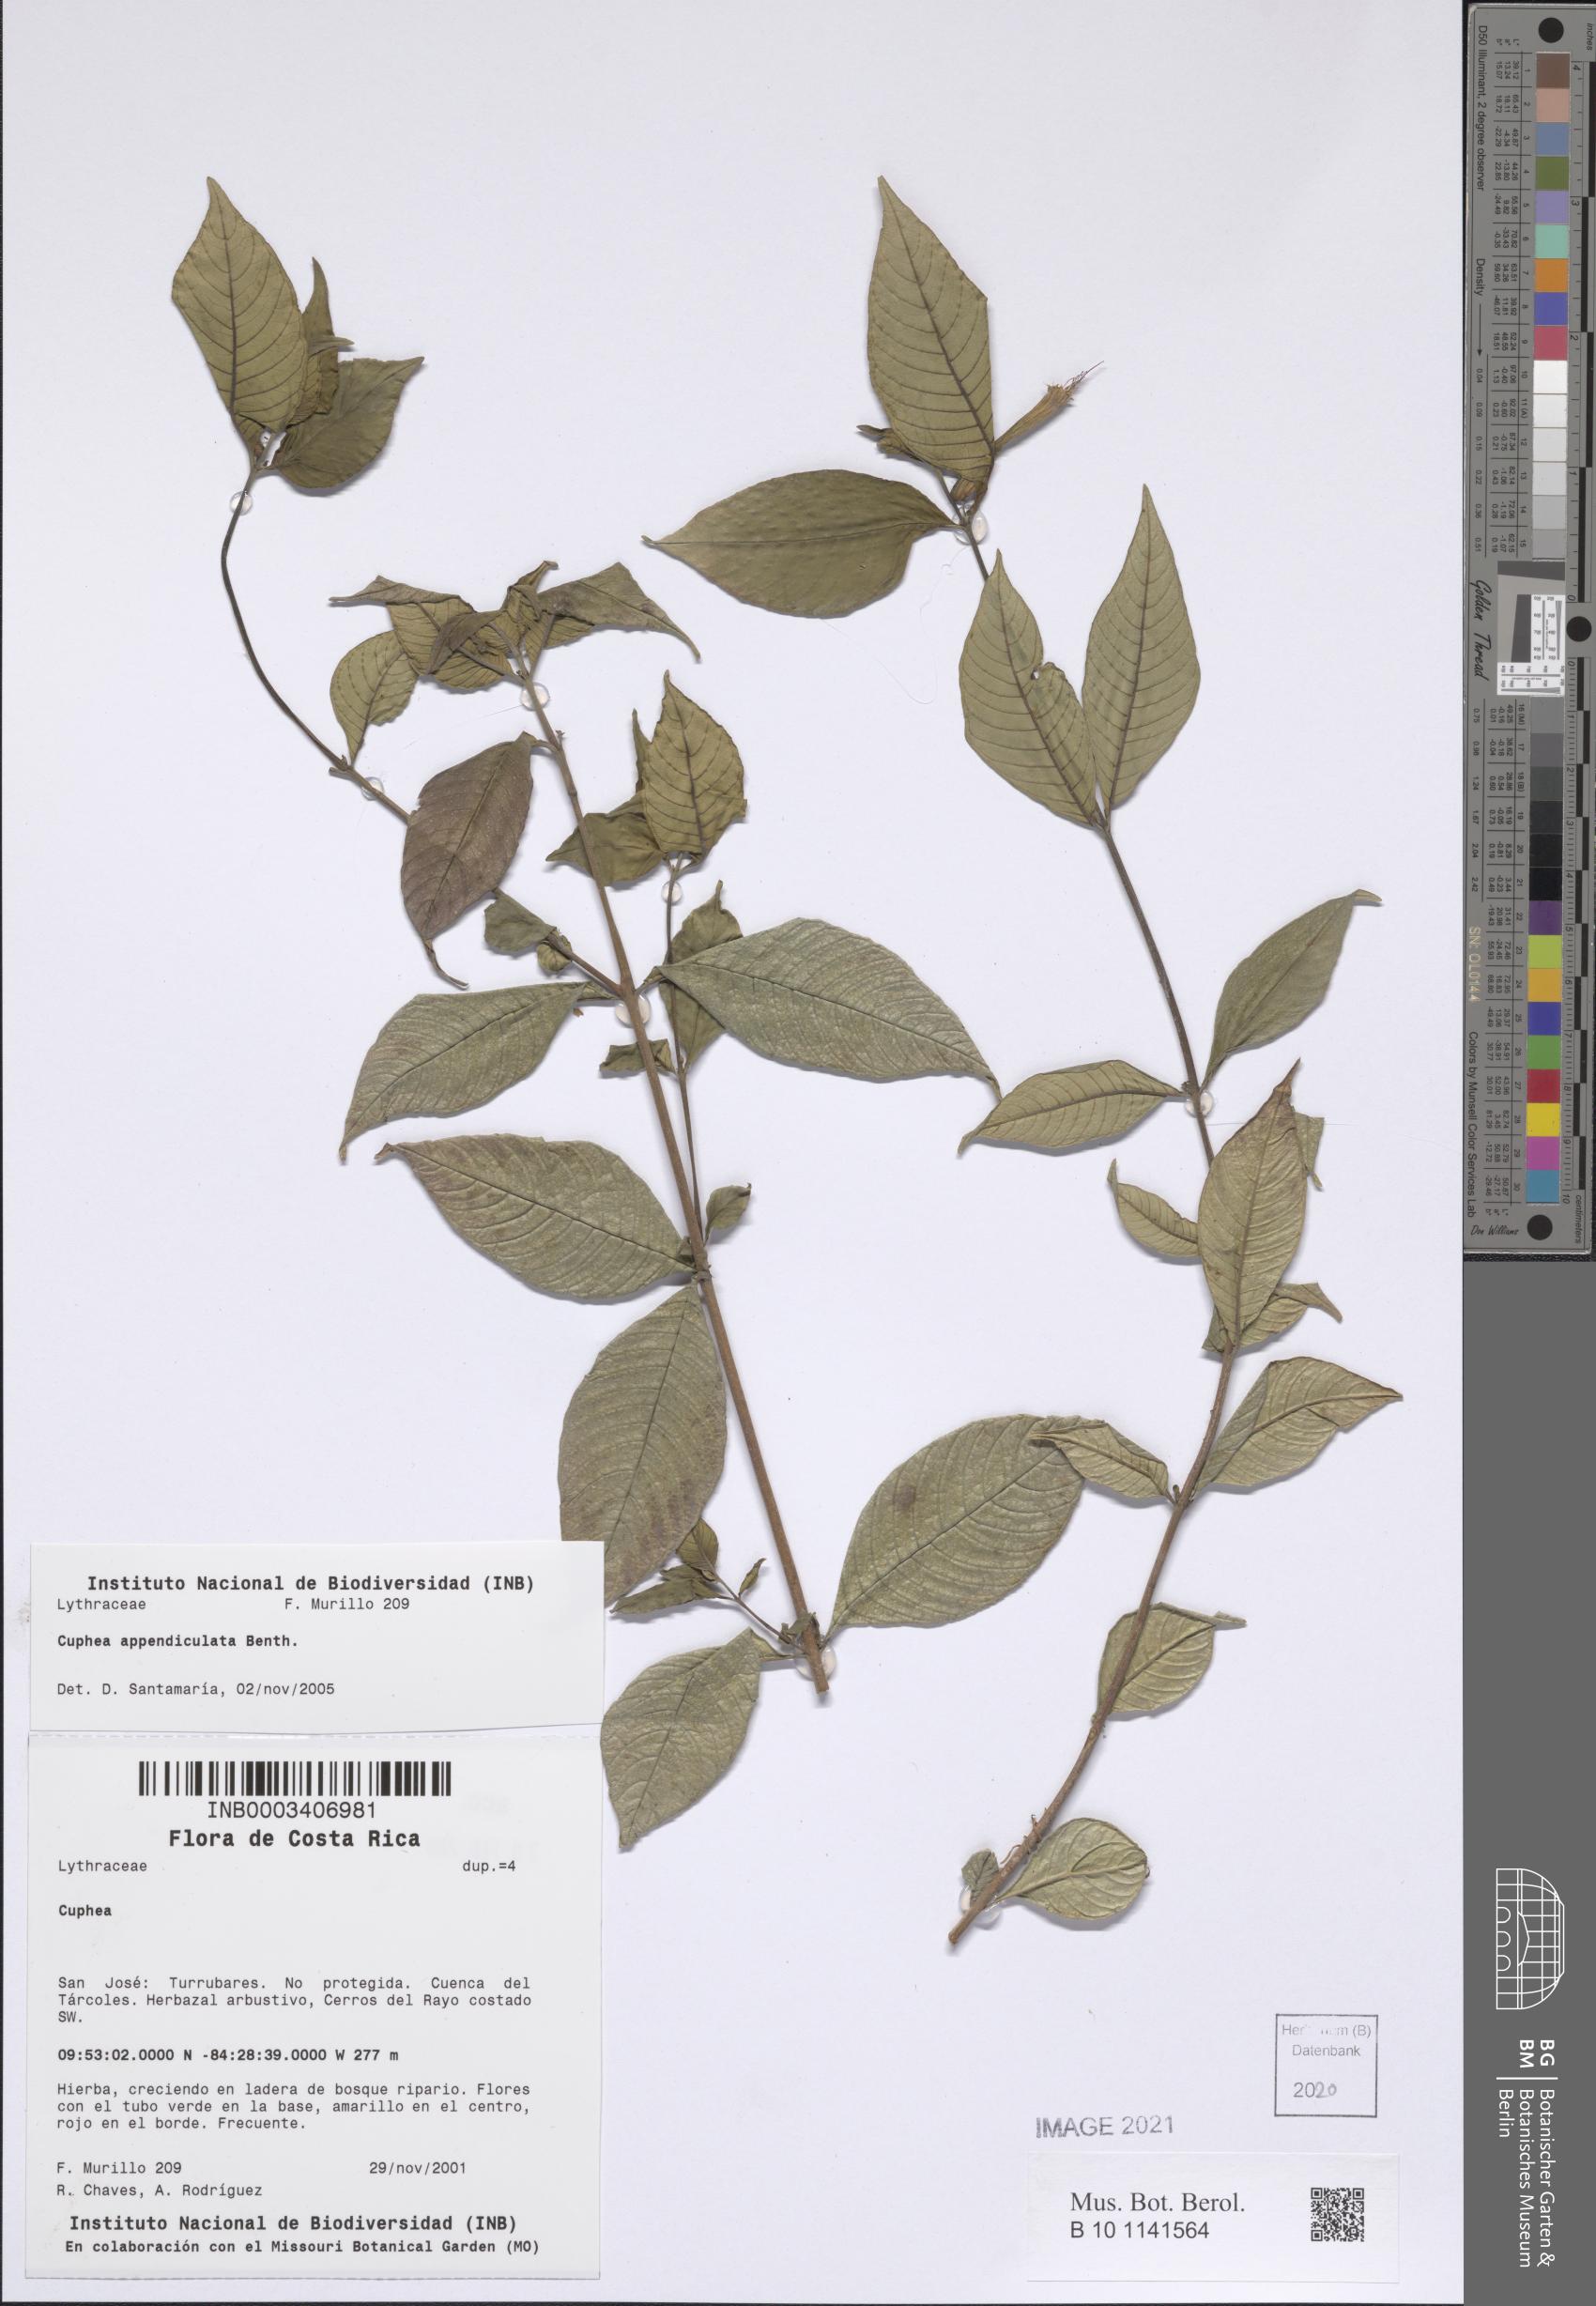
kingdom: Plantae
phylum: Tracheophyta
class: Magnoliopsida
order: Myrtales
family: Lythraceae
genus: Cuphea
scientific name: Cuphea appendiculata
